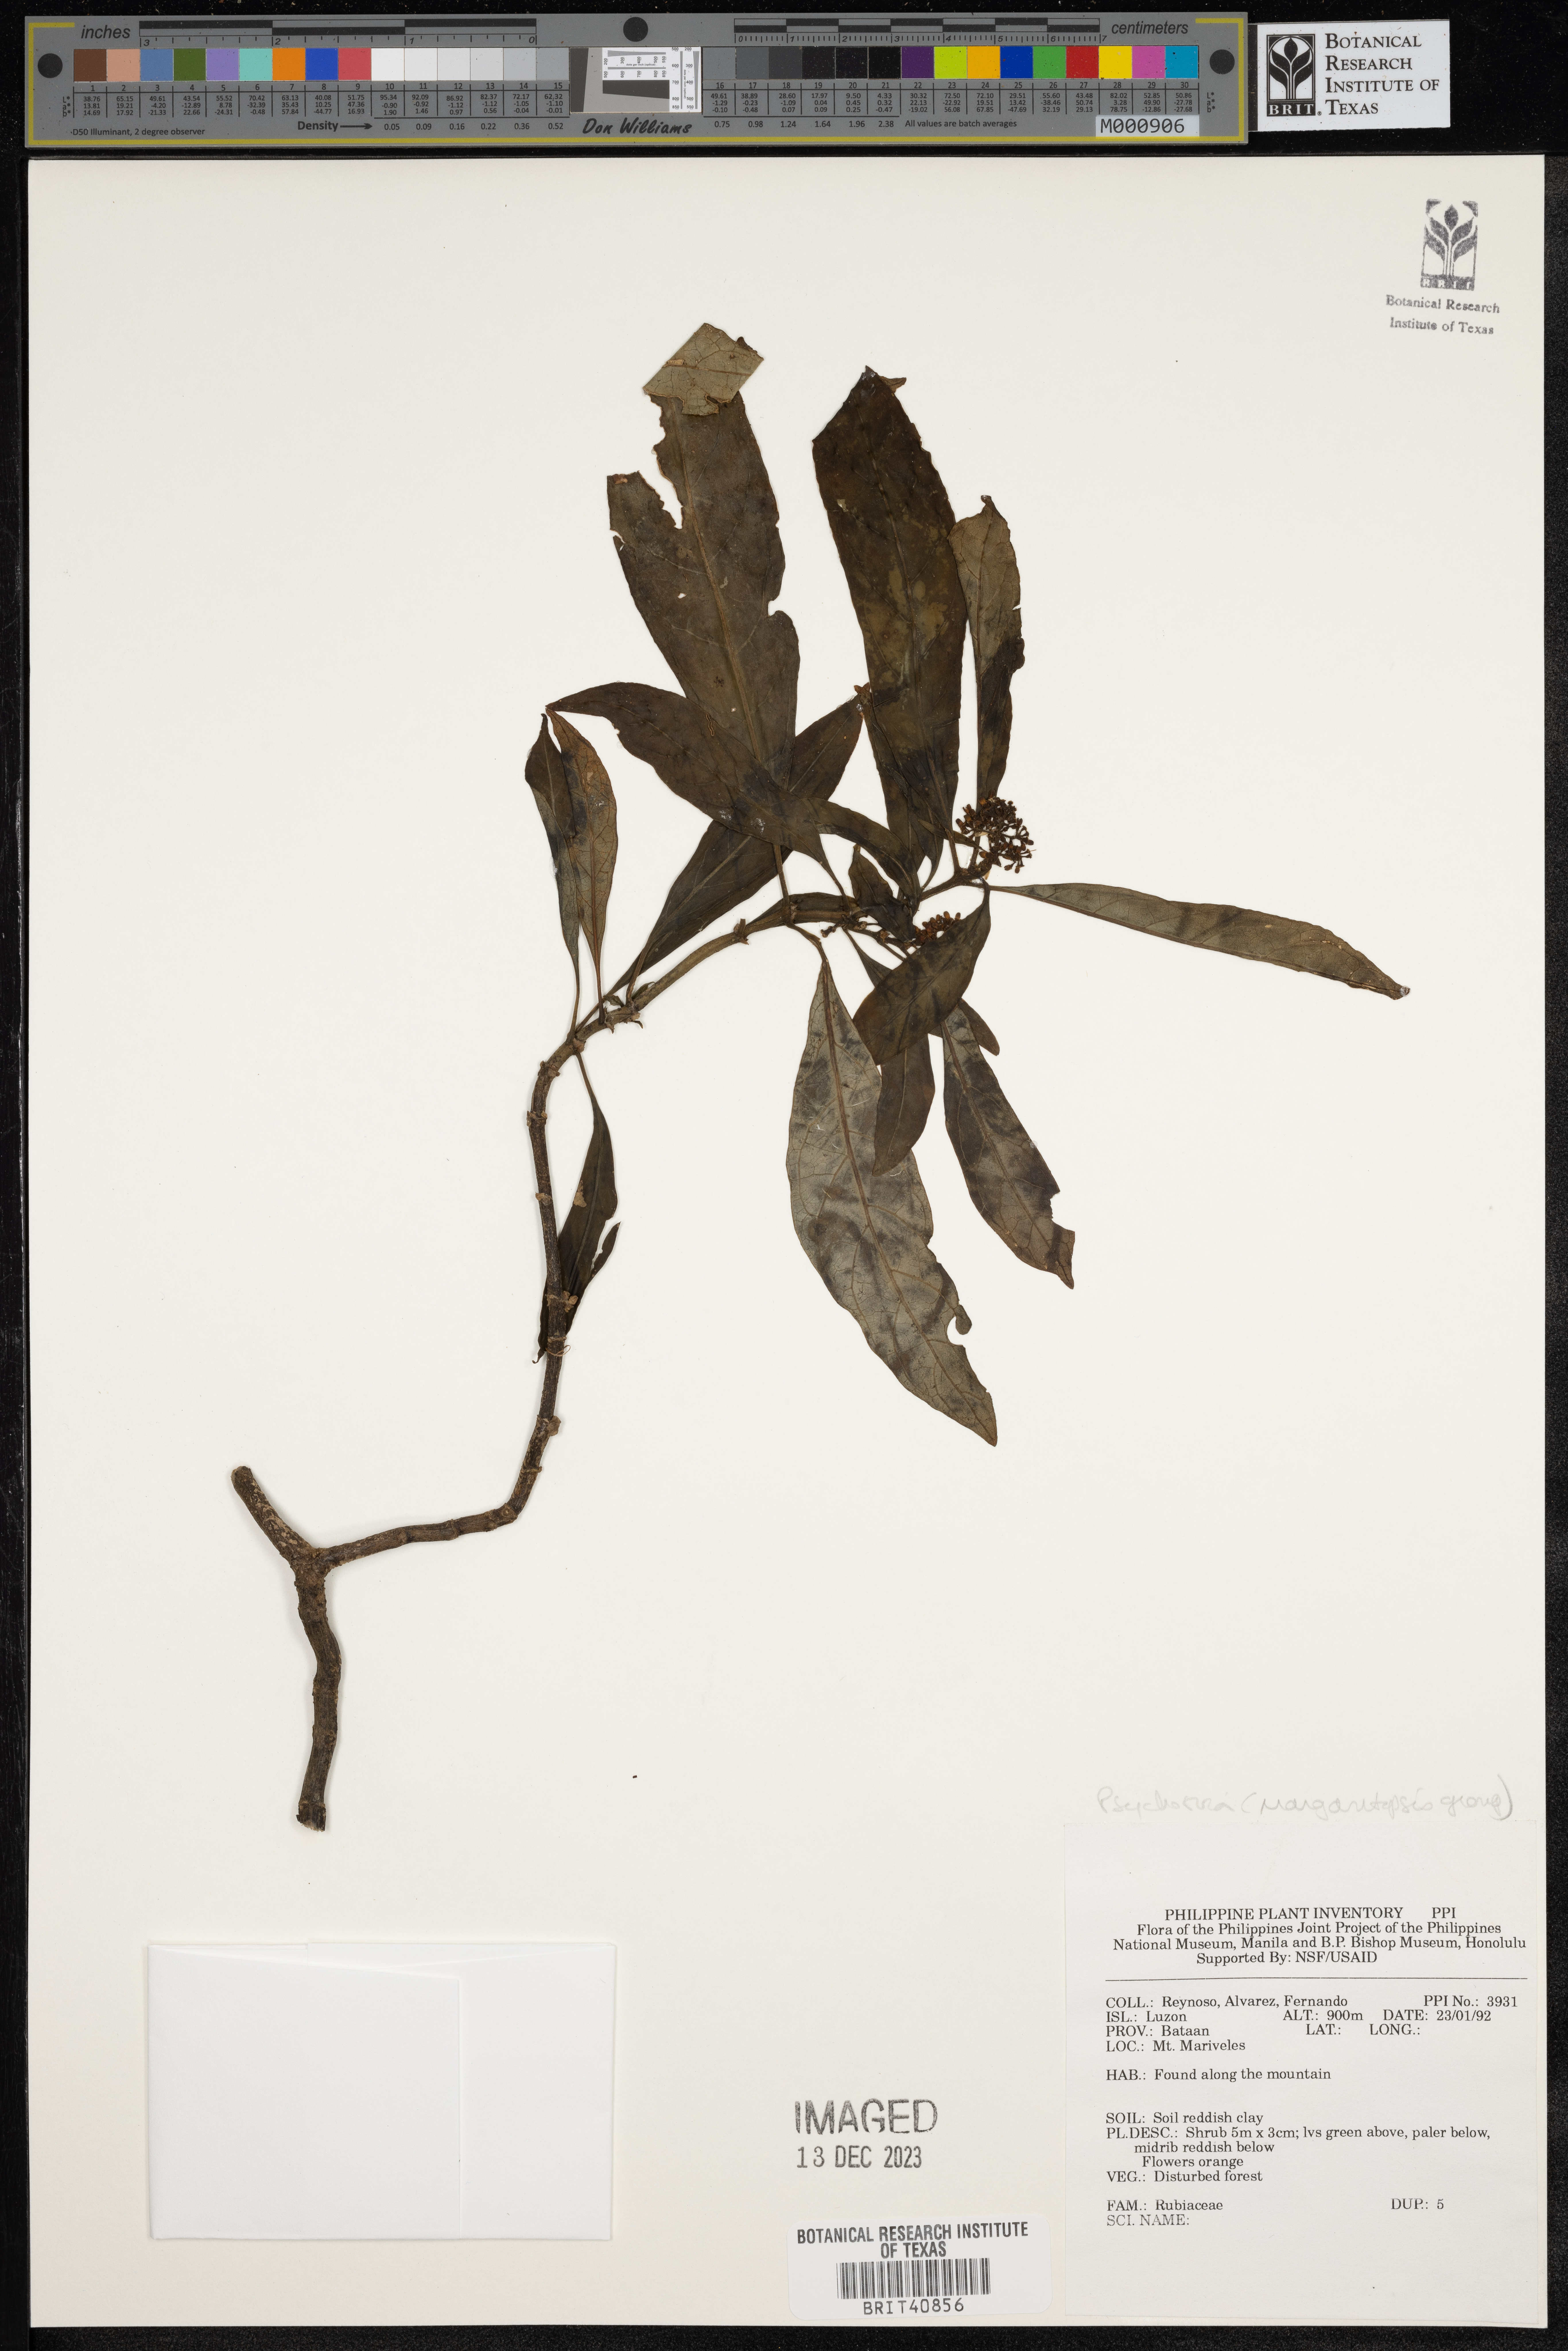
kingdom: Plantae
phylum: Tracheophyta
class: Magnoliopsida
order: Gentianales
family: Rubiaceae
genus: Psychotria
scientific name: Psychotria
